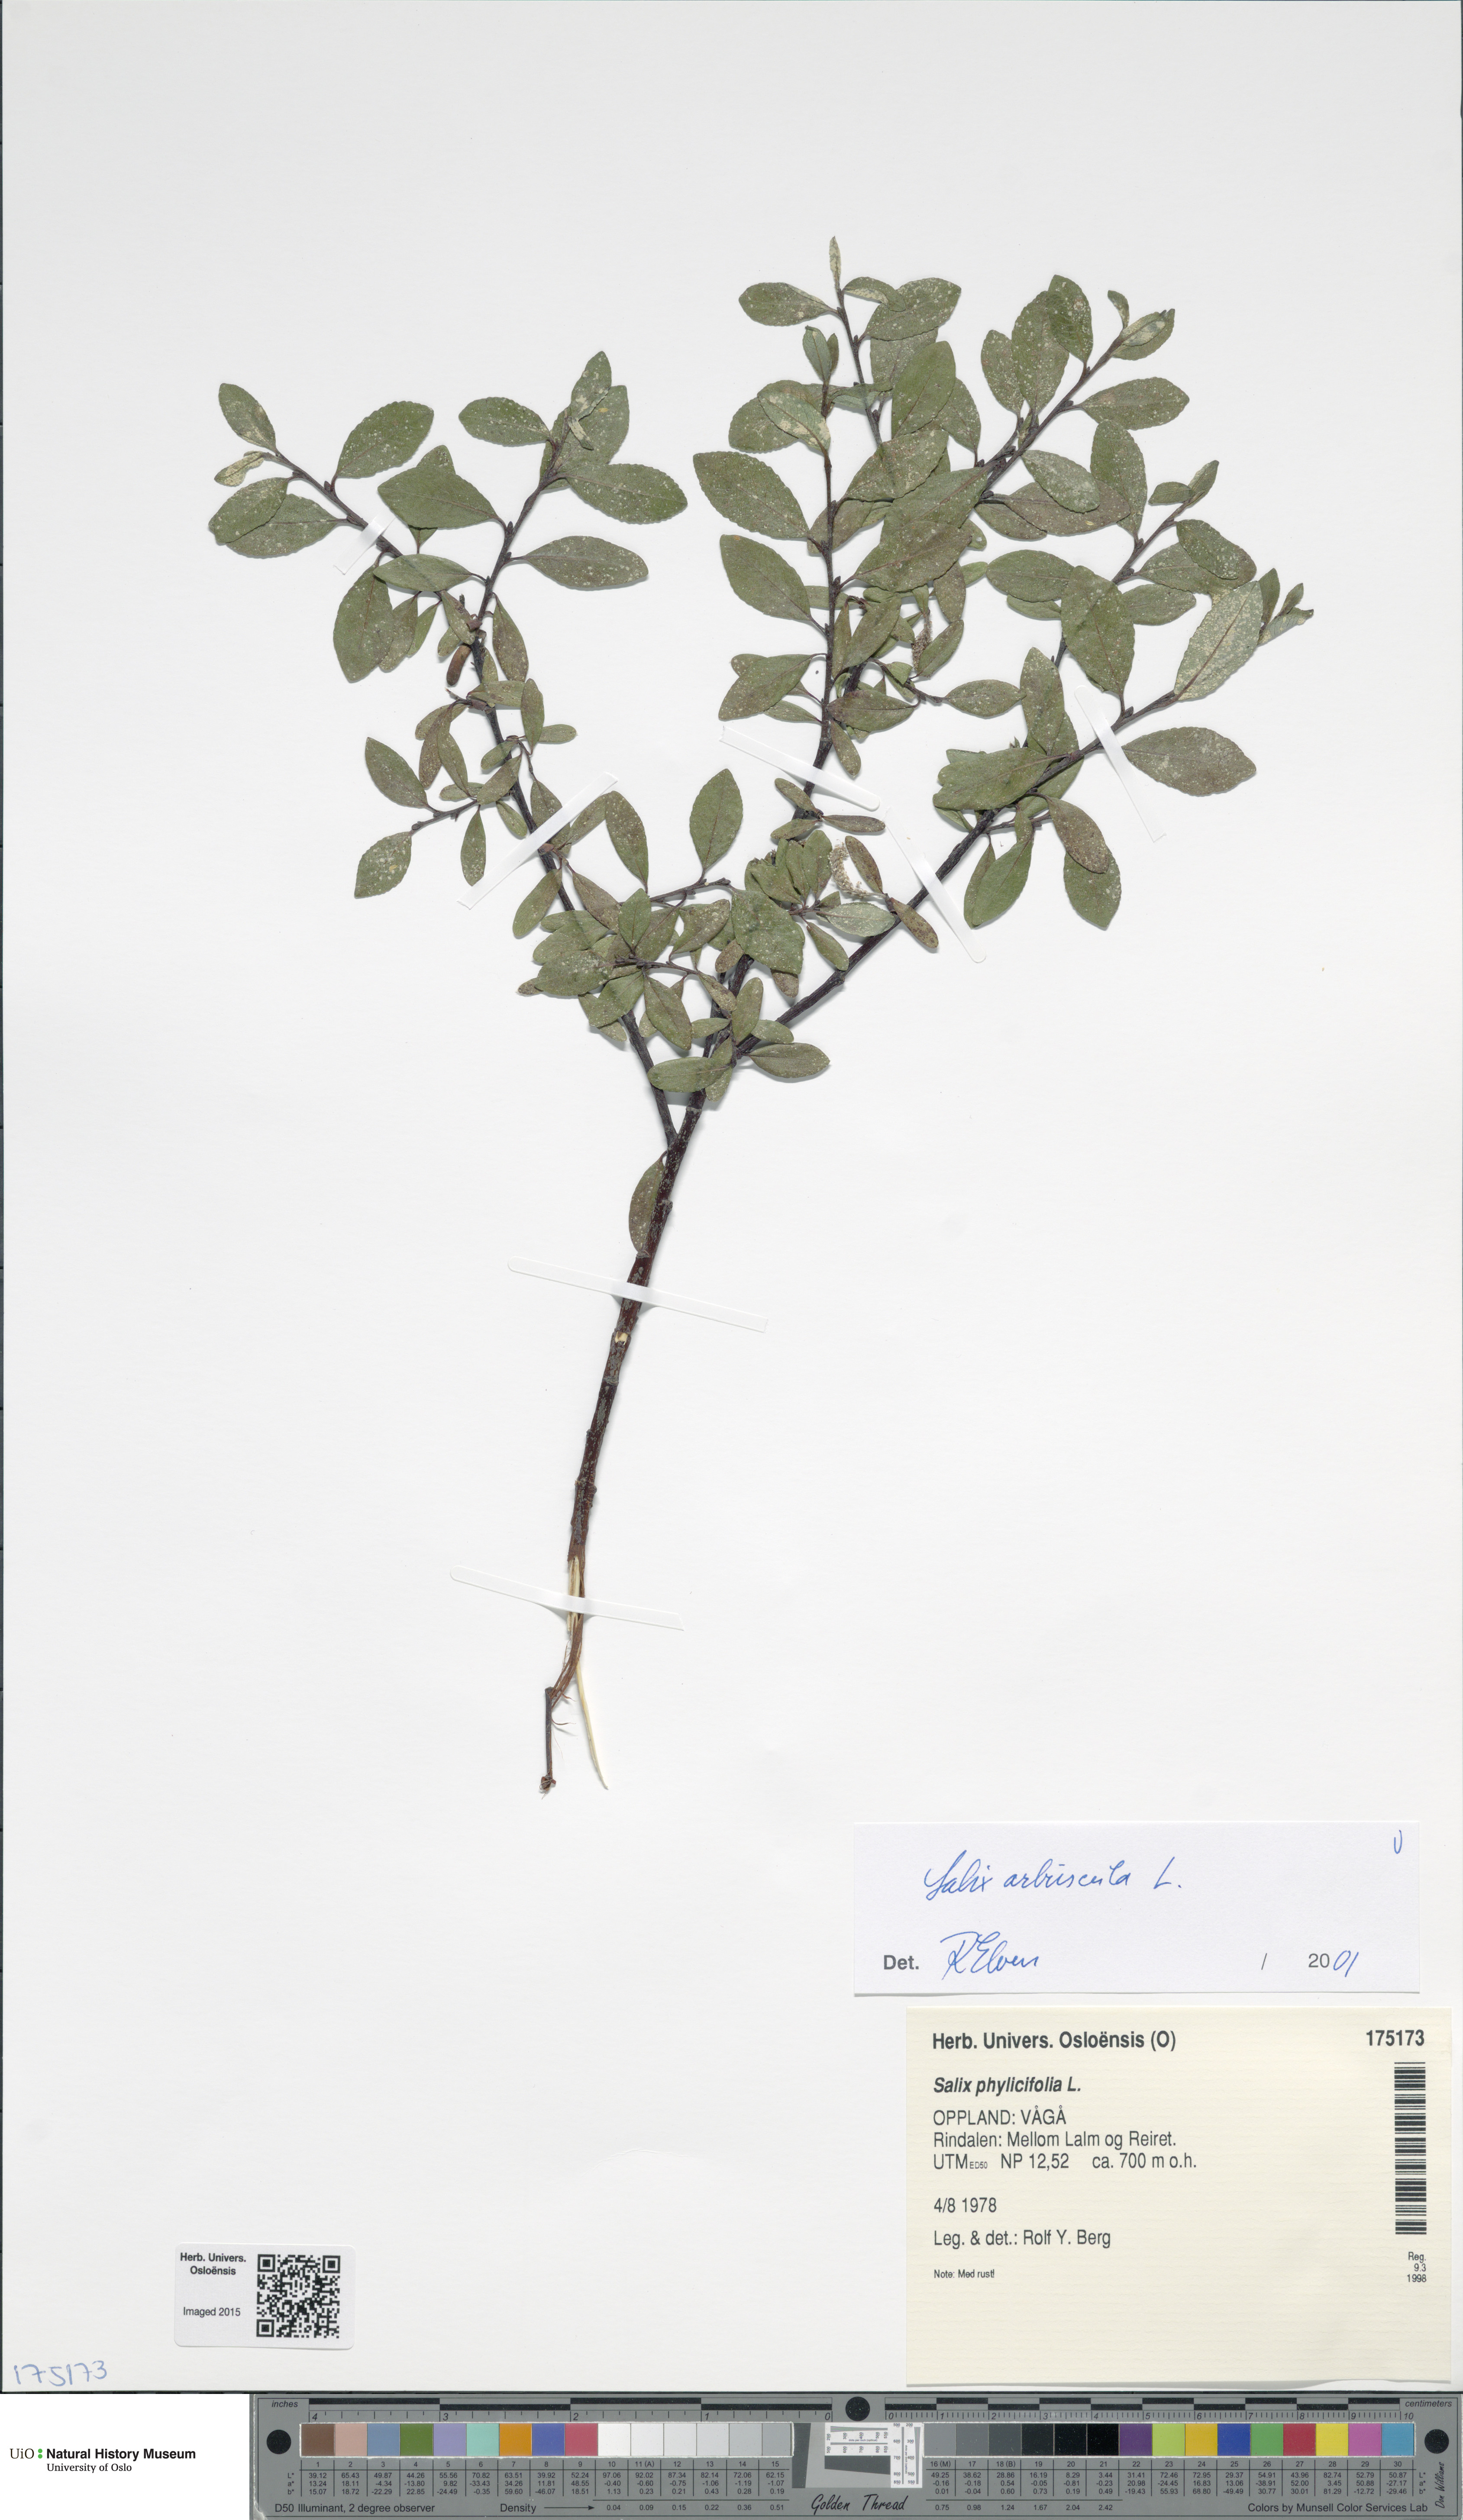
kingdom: Plantae
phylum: Tracheophyta
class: Magnoliopsida
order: Malpighiales
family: Salicaceae
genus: Salix
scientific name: Salix arbuscula
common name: Mountain willow
